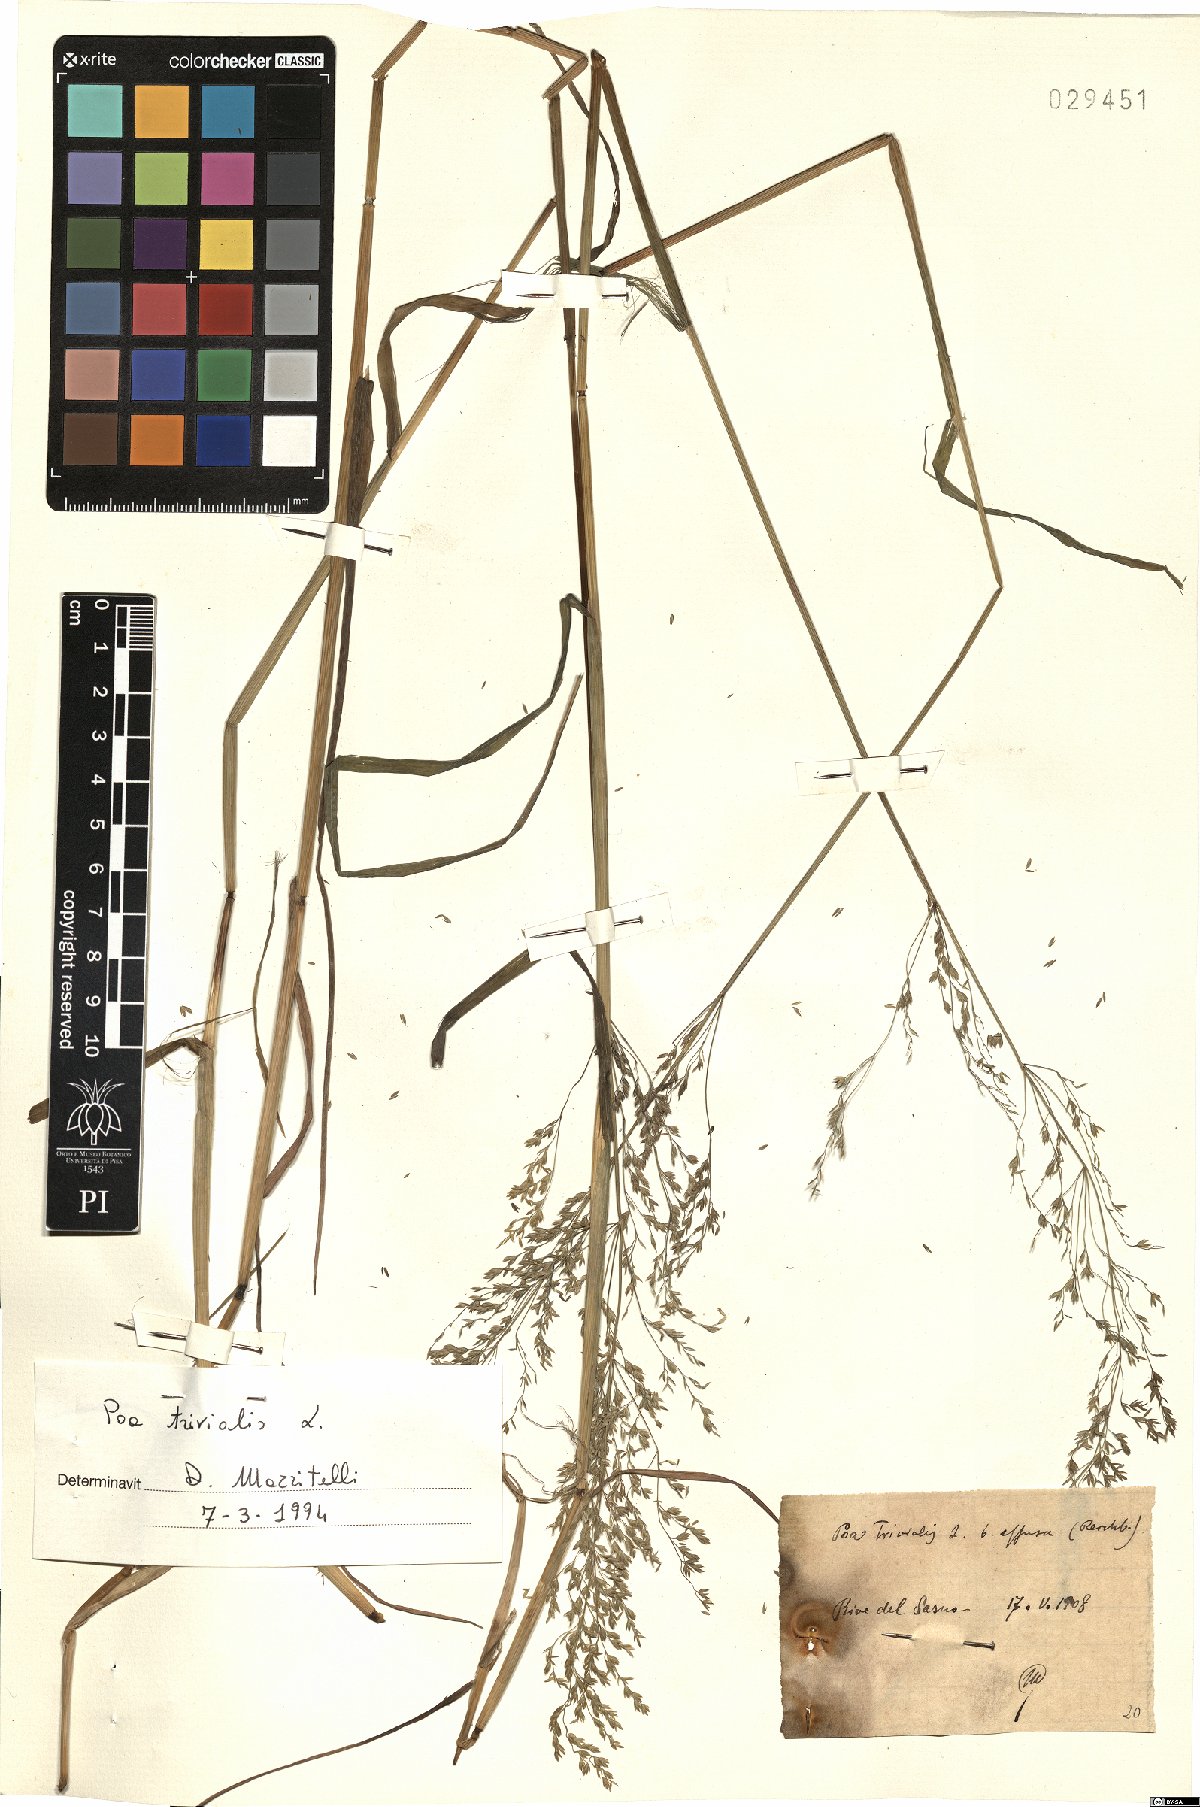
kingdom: Plantae
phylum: Tracheophyta
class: Liliopsida
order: Poales
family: Poaceae
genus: Poa
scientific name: Poa trivialis
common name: Rough bluegrass
